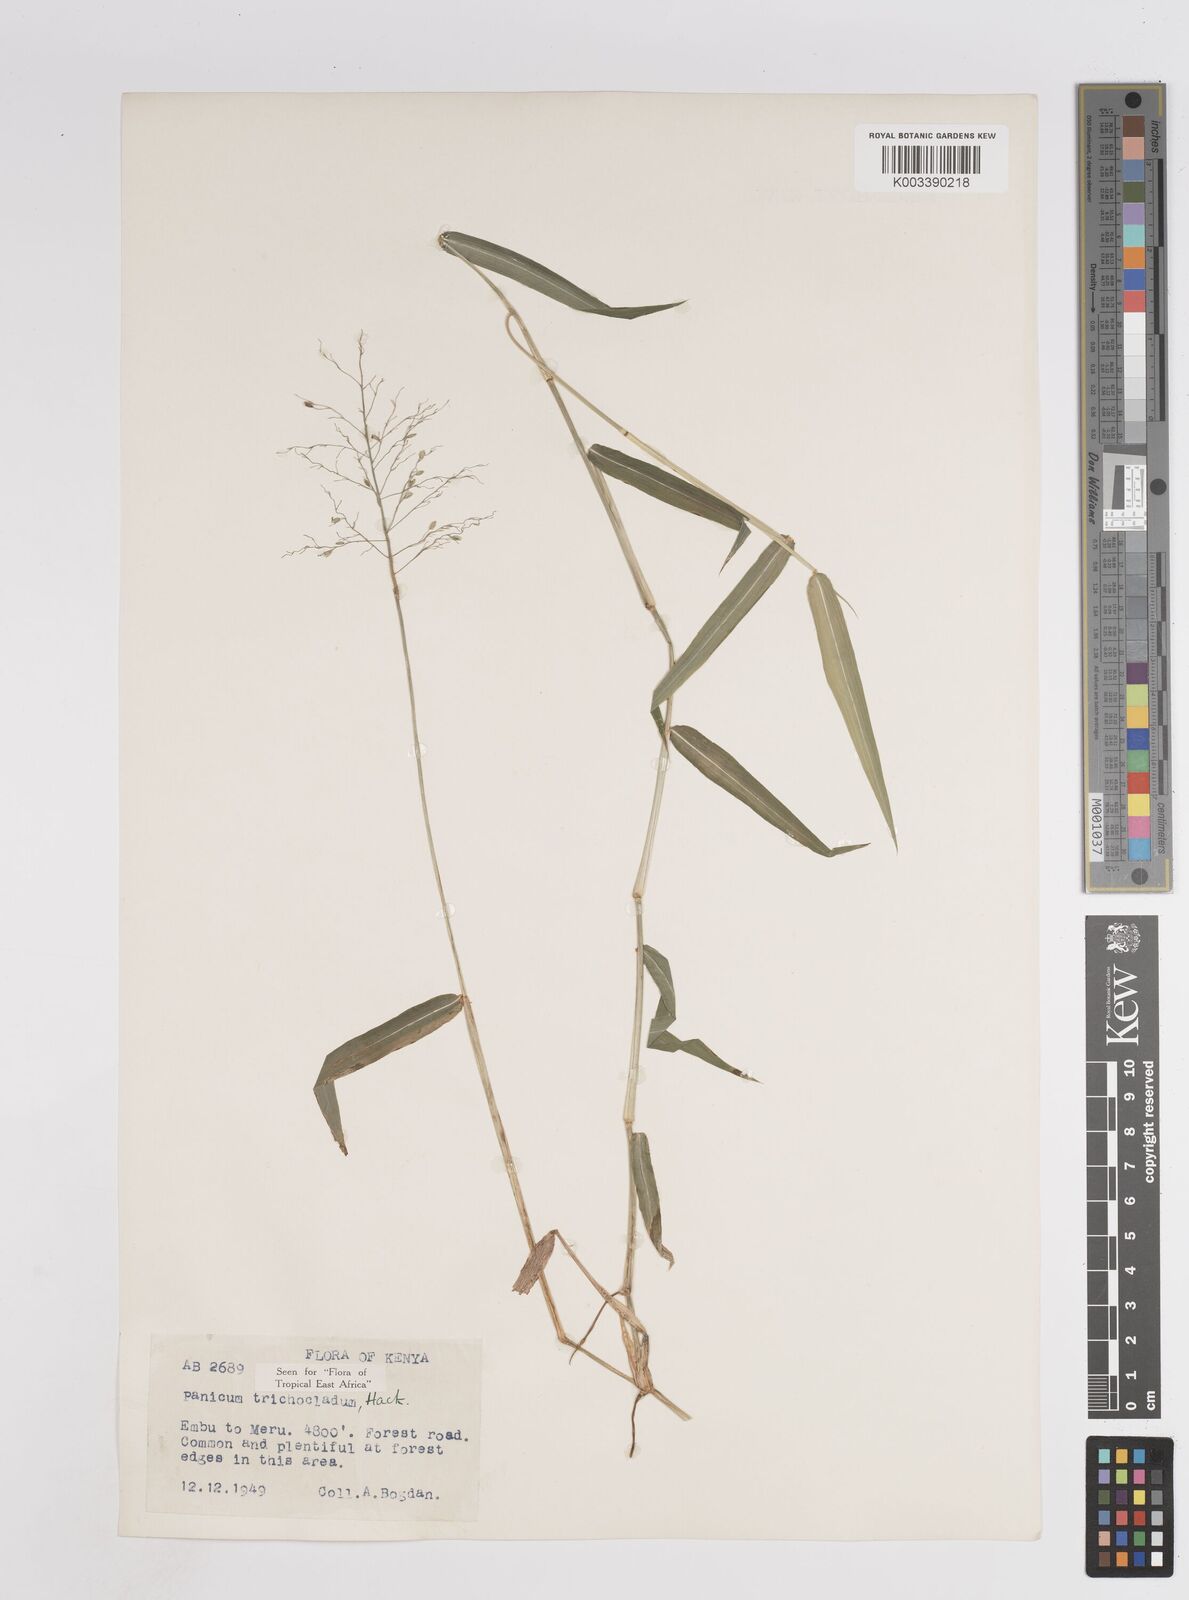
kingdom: Plantae
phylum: Tracheophyta
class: Liliopsida
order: Poales
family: Poaceae
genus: Panicum
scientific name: Panicum trichocladum
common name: Donkey grass
